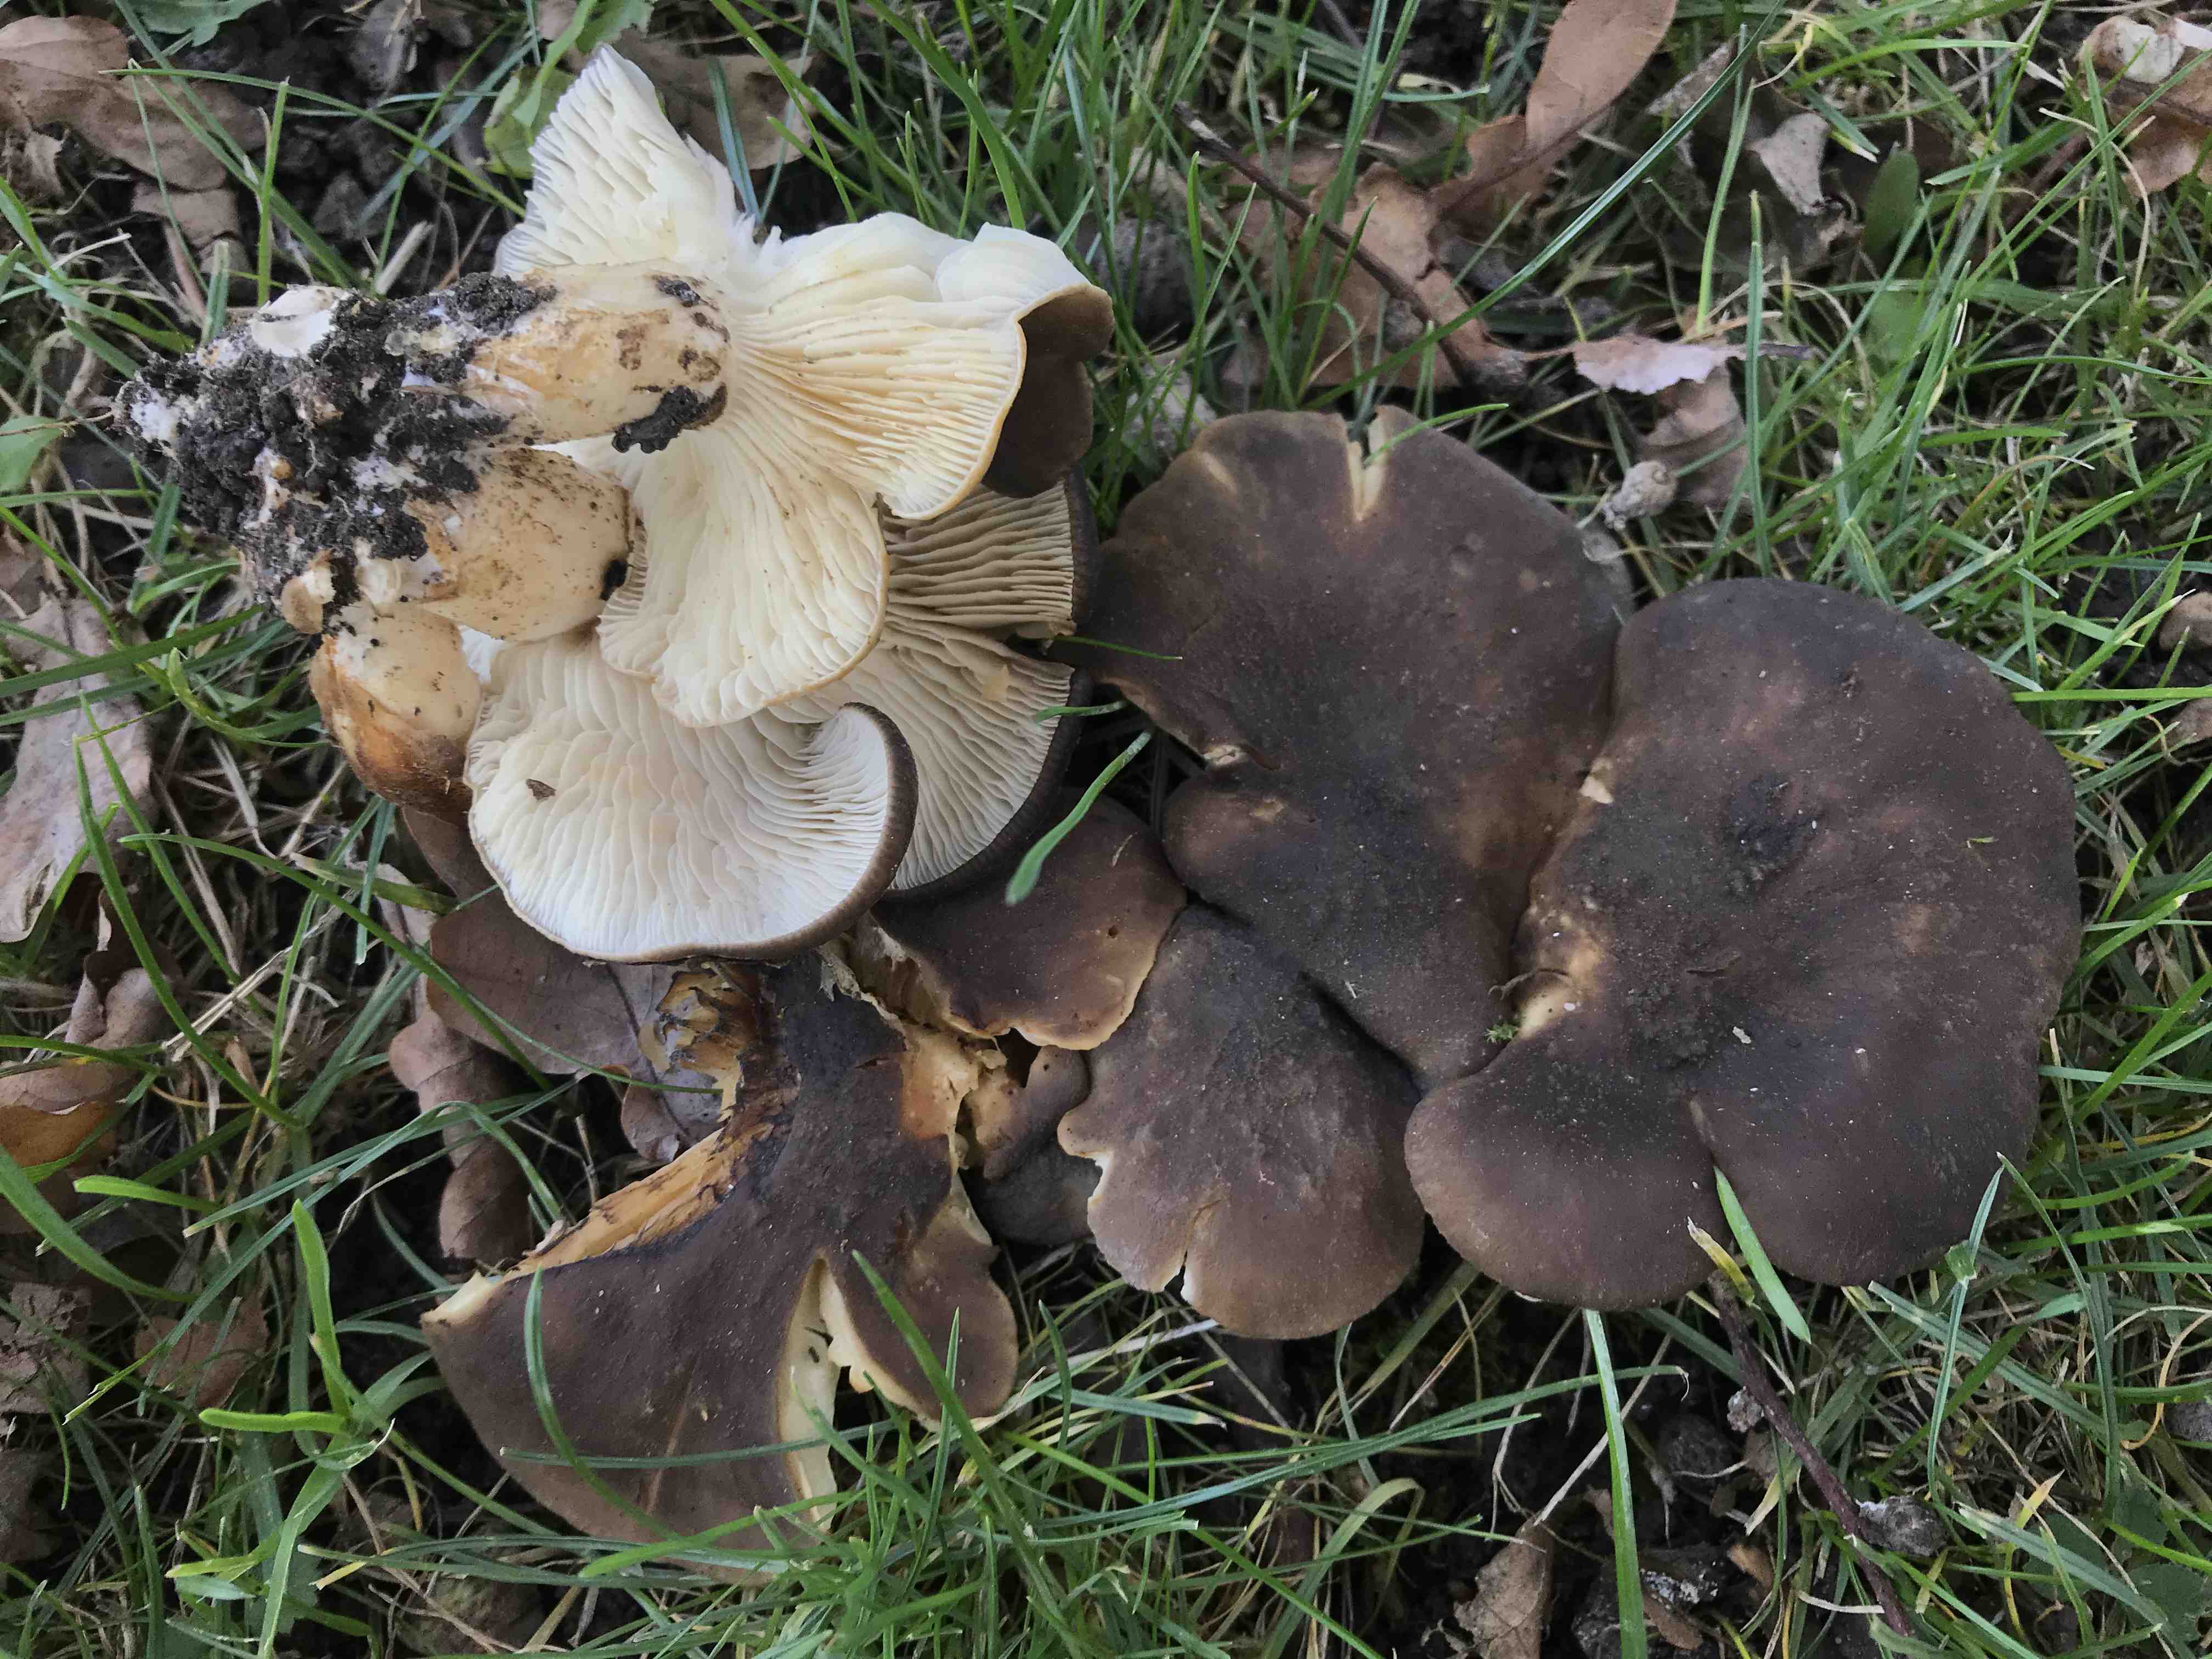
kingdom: Fungi
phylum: Basidiomycota
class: Agaricomycetes
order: Agaricales
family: Lyophyllaceae
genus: Lyophyllum
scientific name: Lyophyllum
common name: gråblad
